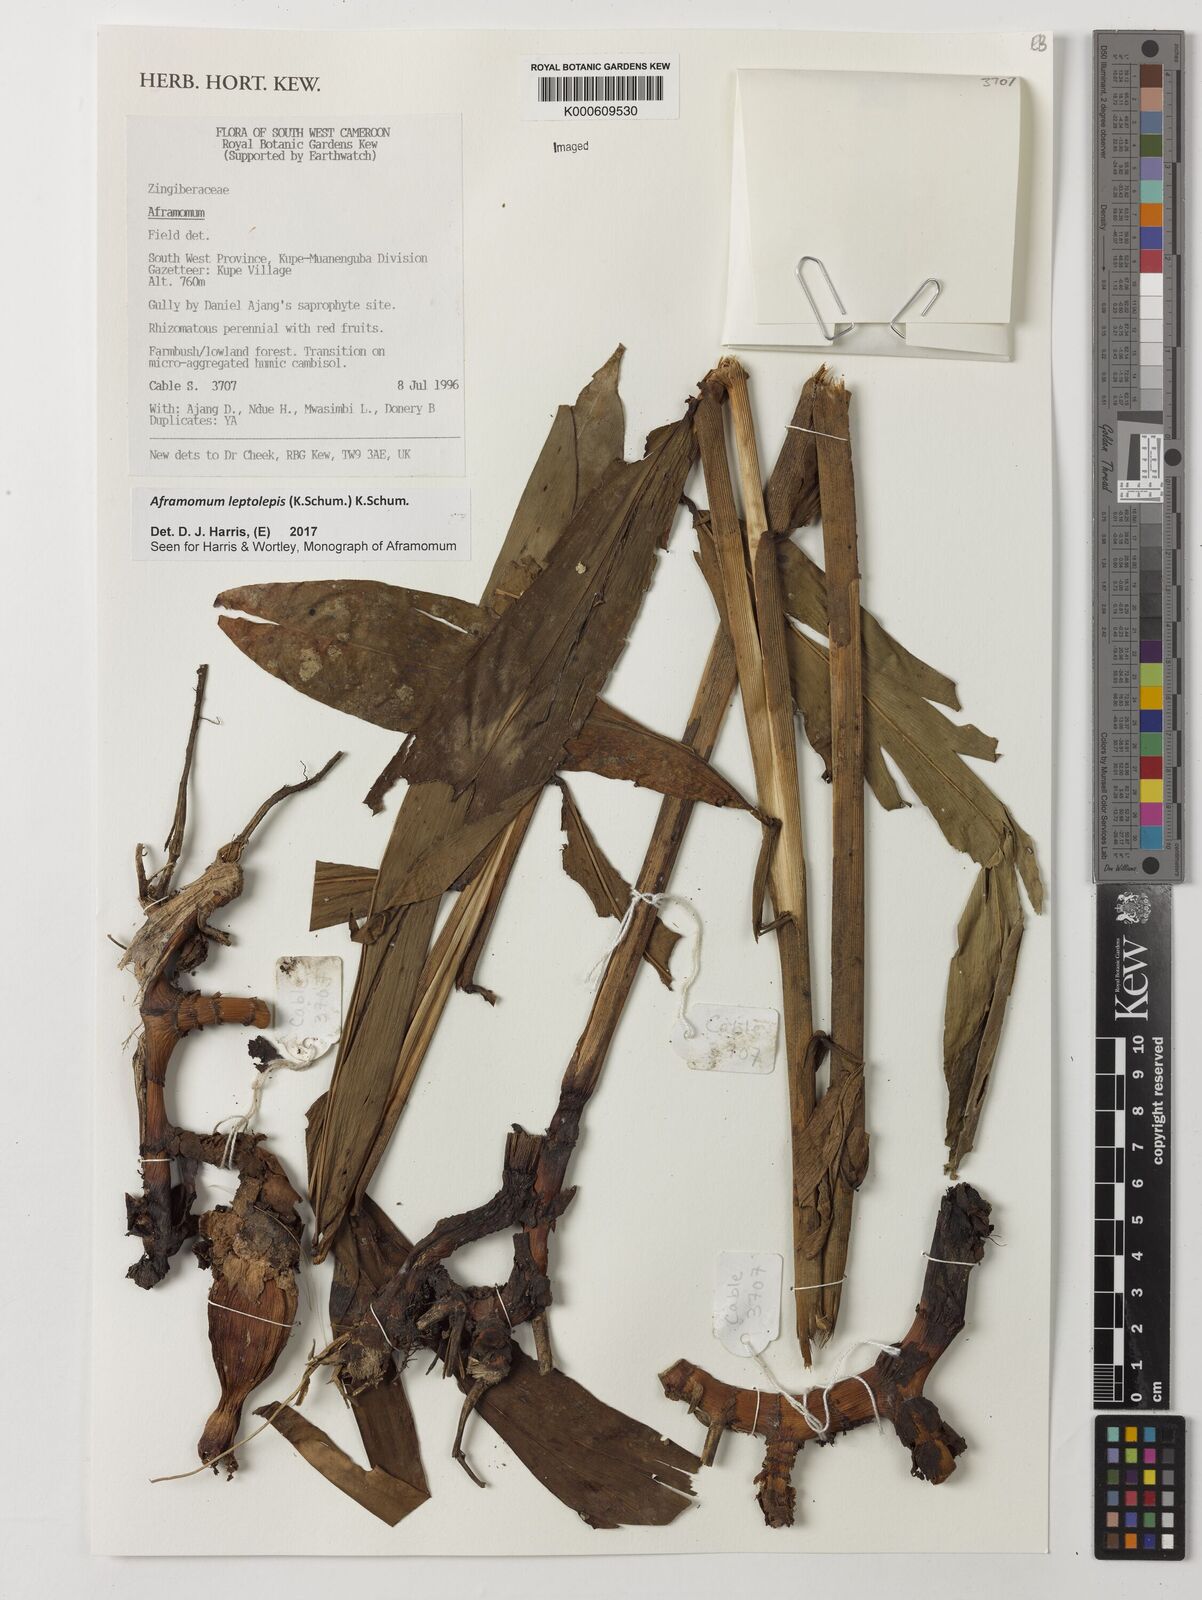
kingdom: Plantae
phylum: Tracheophyta
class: Liliopsida
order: Zingiberales
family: Zingiberaceae
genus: Aframomum
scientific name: Aframomum leptolepis
